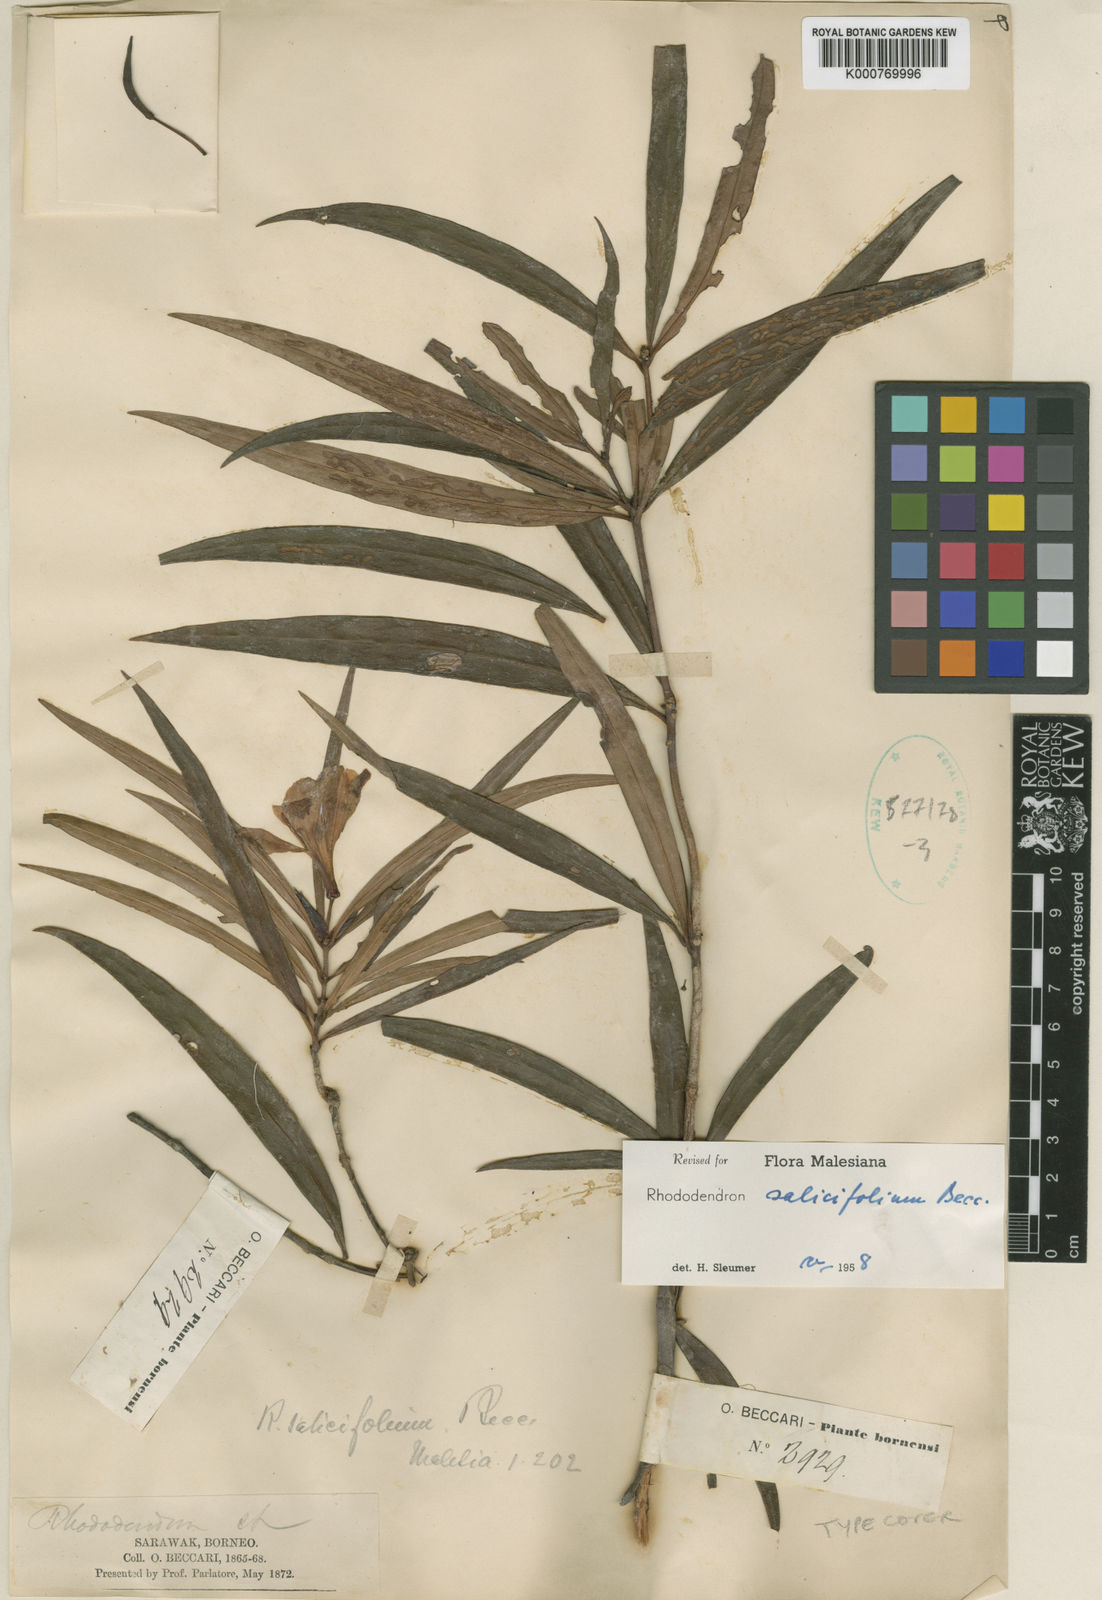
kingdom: Plantae
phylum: Tracheophyta
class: Magnoliopsida
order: Ericales
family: Ericaceae
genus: Rhododendron
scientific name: Rhododendron salicifolium
